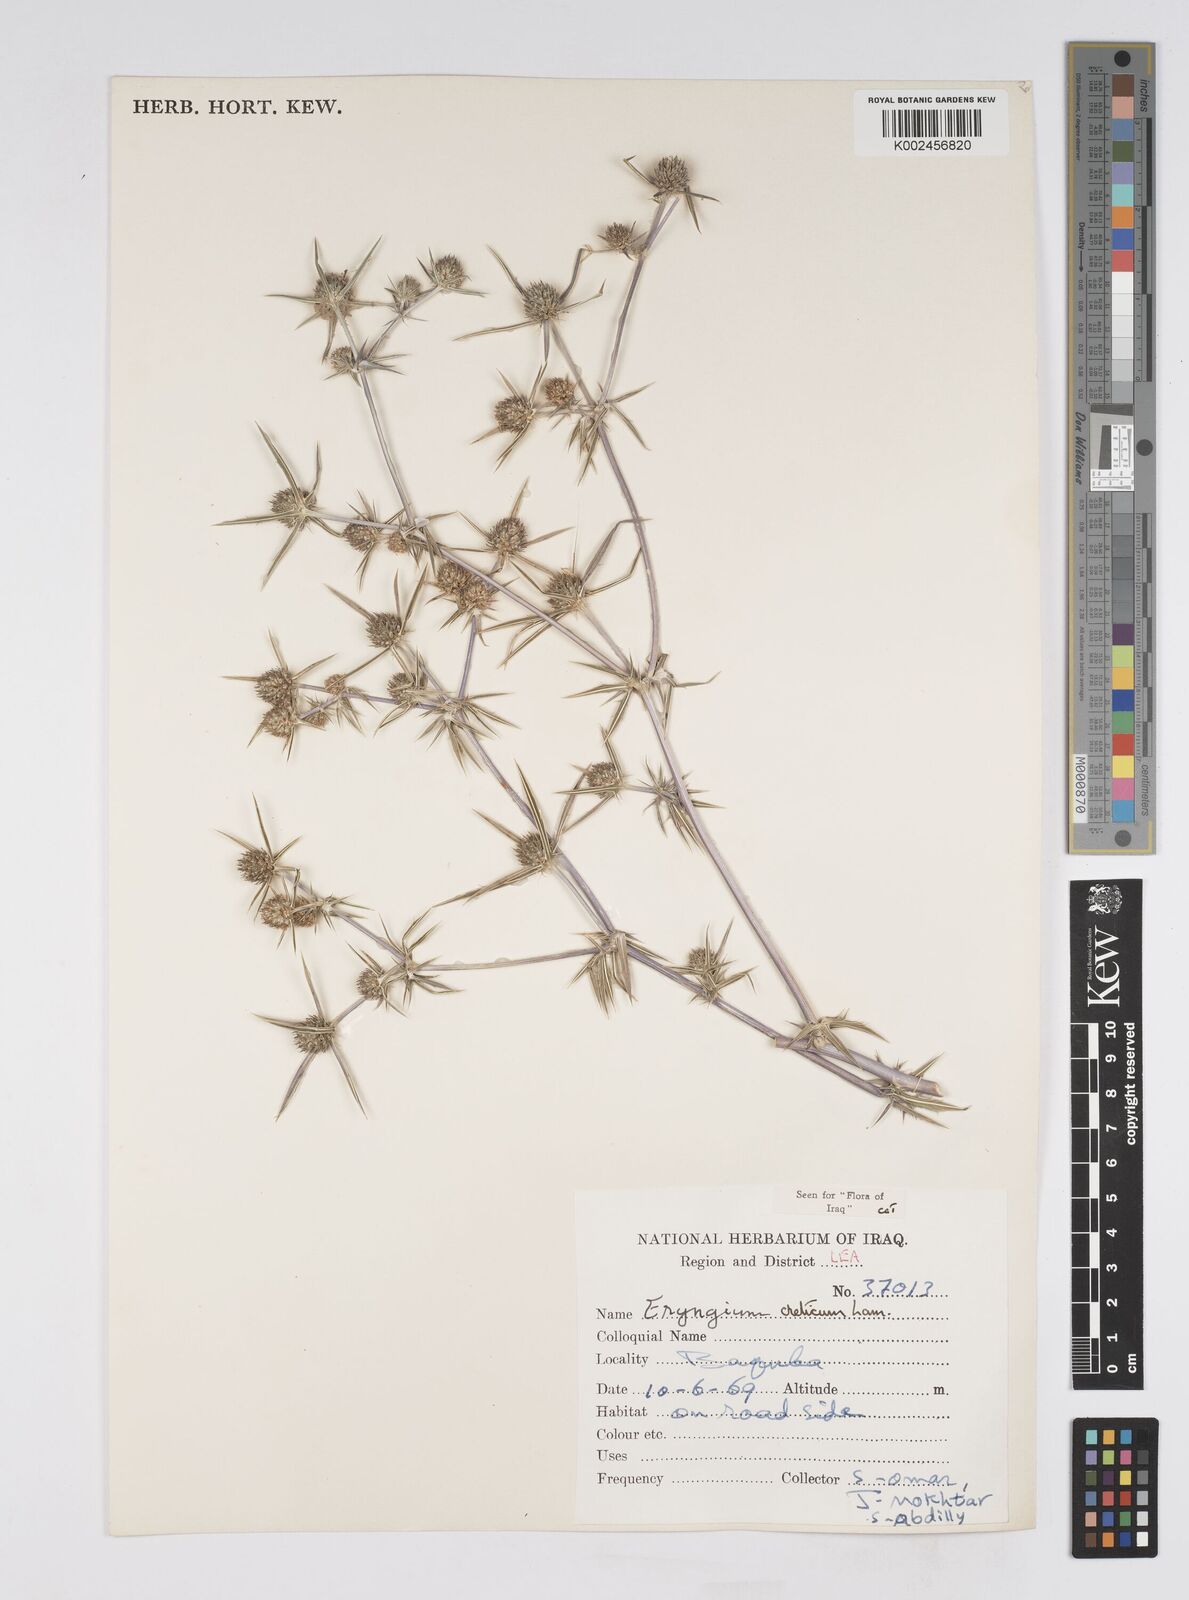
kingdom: Plantae
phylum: Tracheophyta
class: Magnoliopsida
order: Apiales
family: Apiaceae
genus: Eryngium
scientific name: Eryngium creticum
